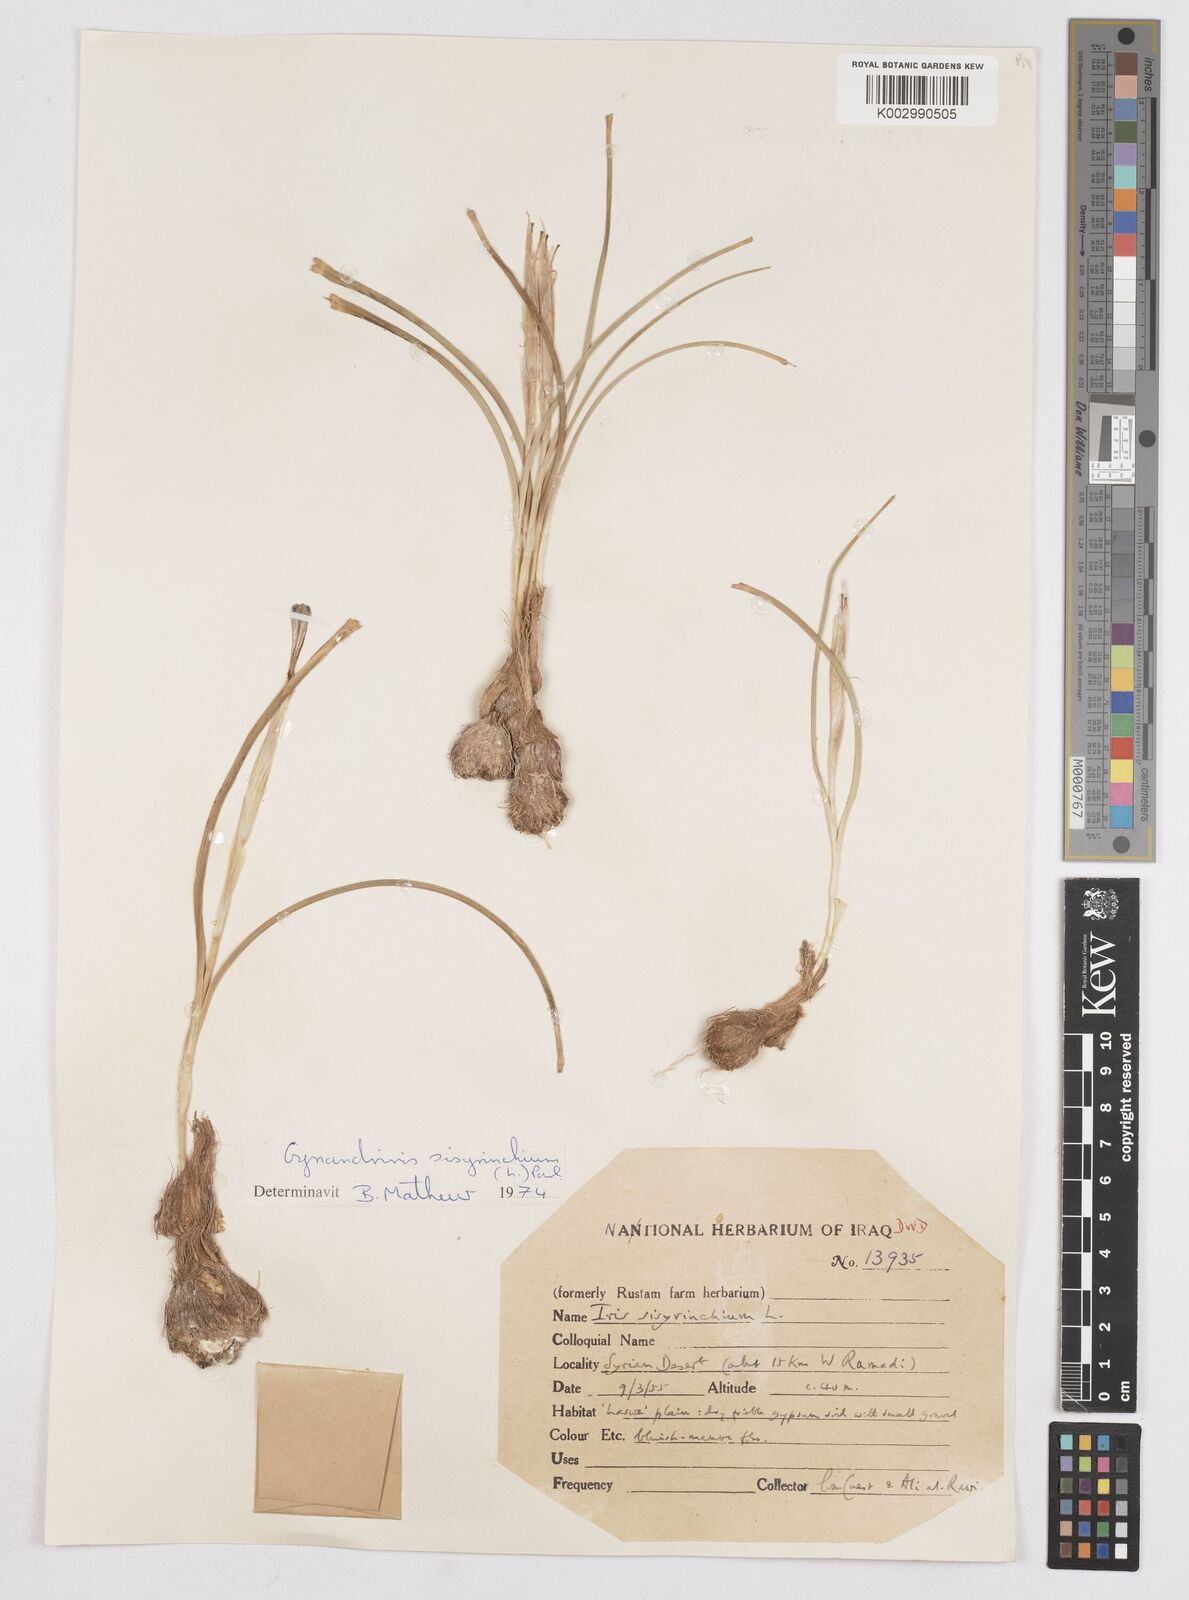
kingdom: Plantae
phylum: Tracheophyta
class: Liliopsida
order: Asparagales
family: Iridaceae
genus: Moraea
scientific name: Moraea sisyrinchium
